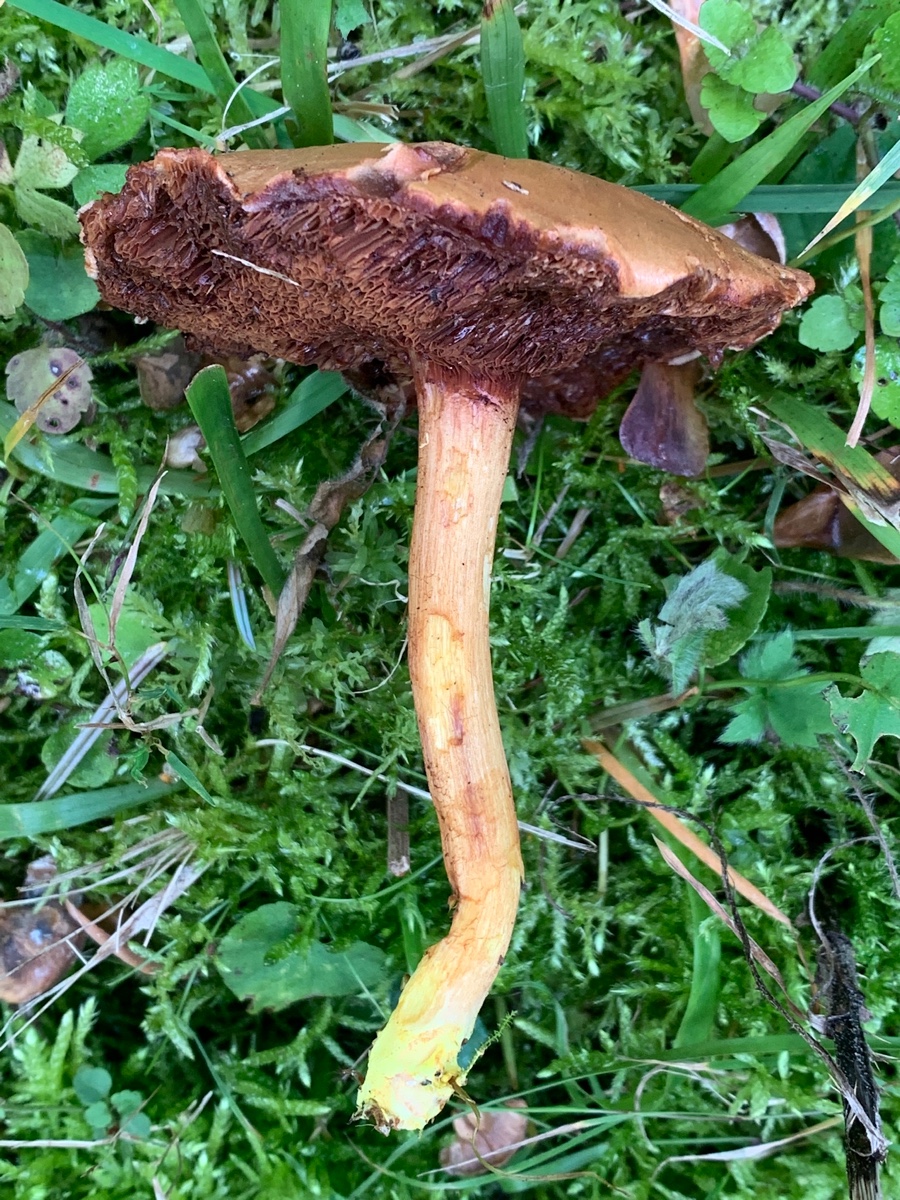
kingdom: Fungi
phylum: Basidiomycota
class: Agaricomycetes
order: Boletales
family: Boletaceae
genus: Chalciporus
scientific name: Chalciporus piperatus
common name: peberrørhat
